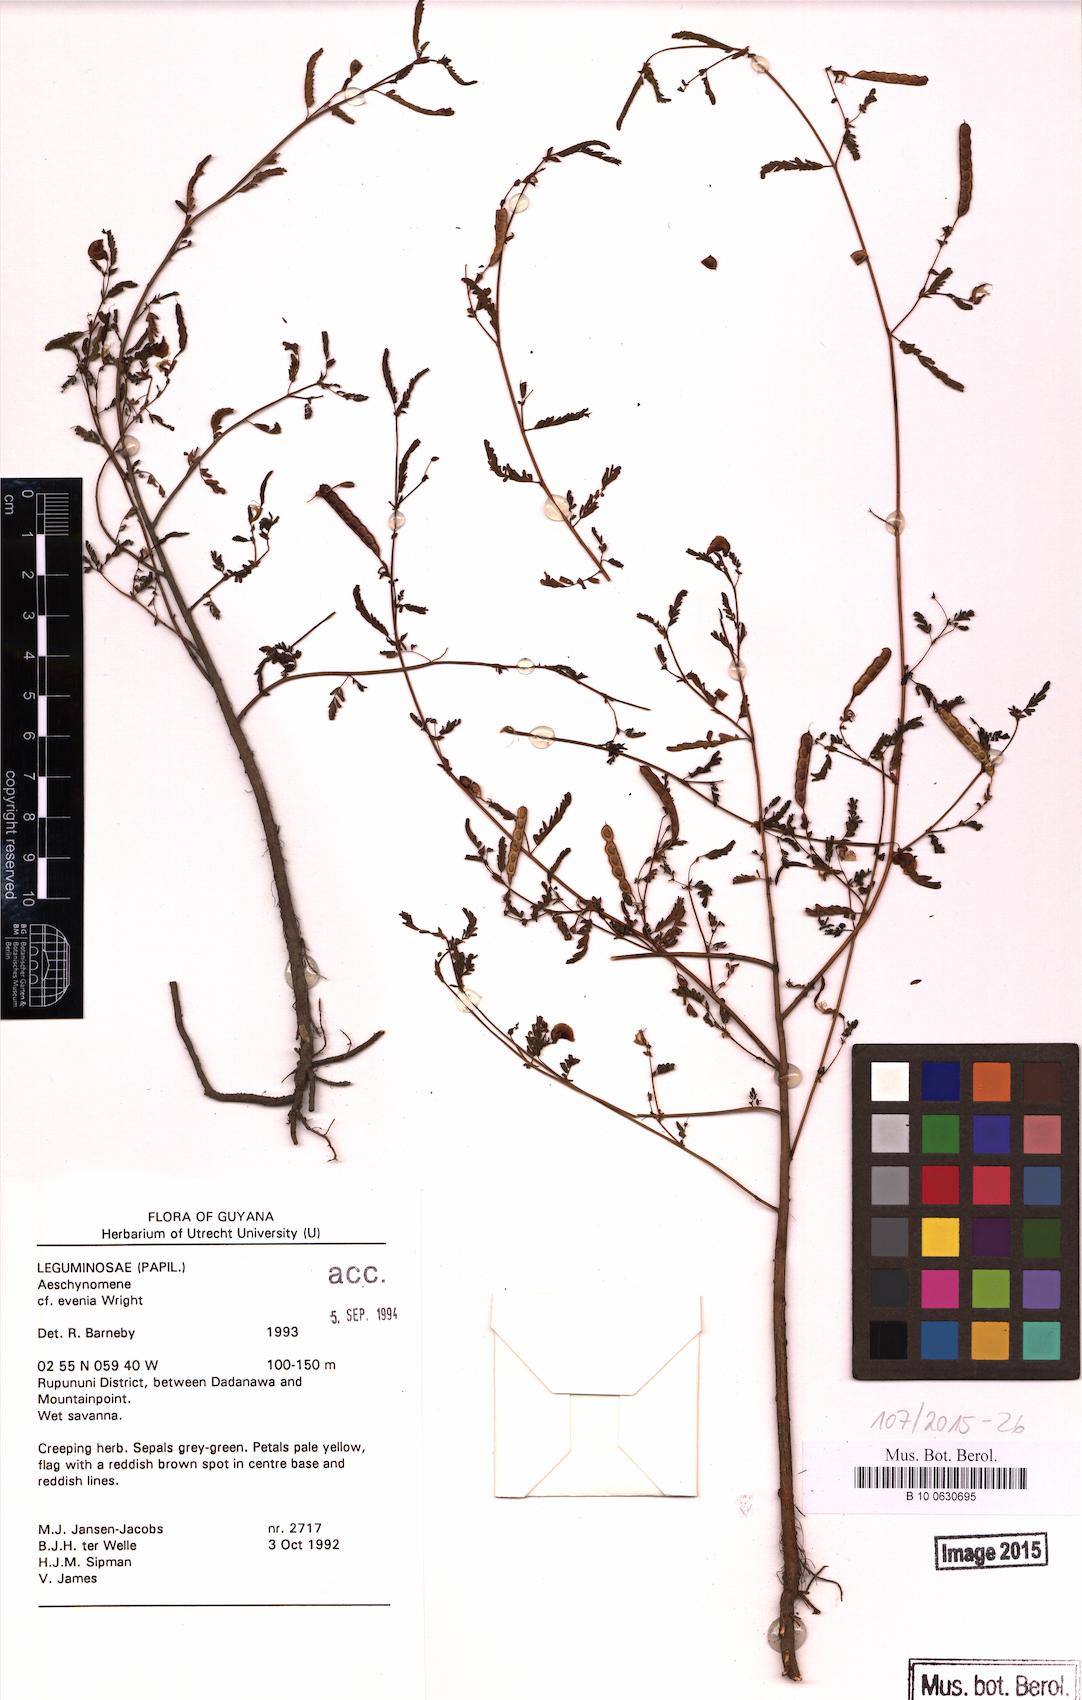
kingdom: Plantae
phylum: Tracheophyta
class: Magnoliopsida
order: Fabales
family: Fabaceae
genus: Aeschynomene
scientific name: Aeschynomene evenia
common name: Shrubby jointvetch
